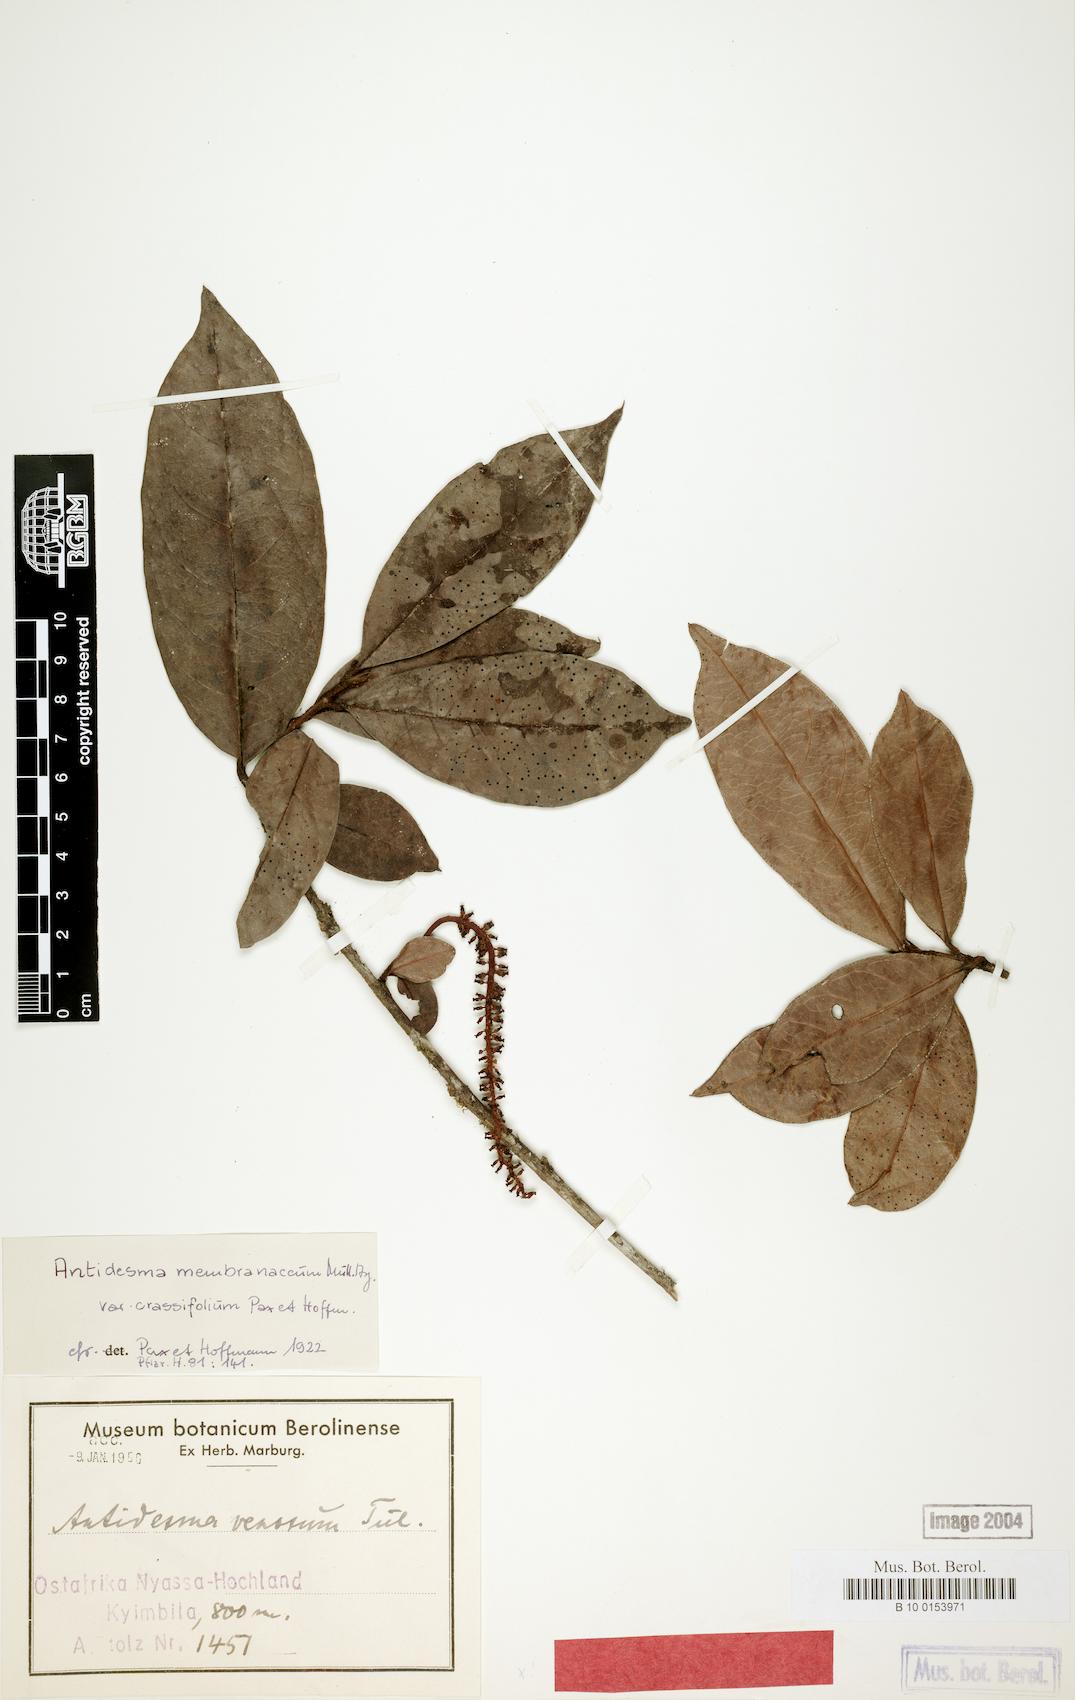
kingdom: Plantae
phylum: Tracheophyta
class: Magnoliopsida
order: Malpighiales
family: Phyllanthaceae
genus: Antidesma
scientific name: Antidesma vogelianum
